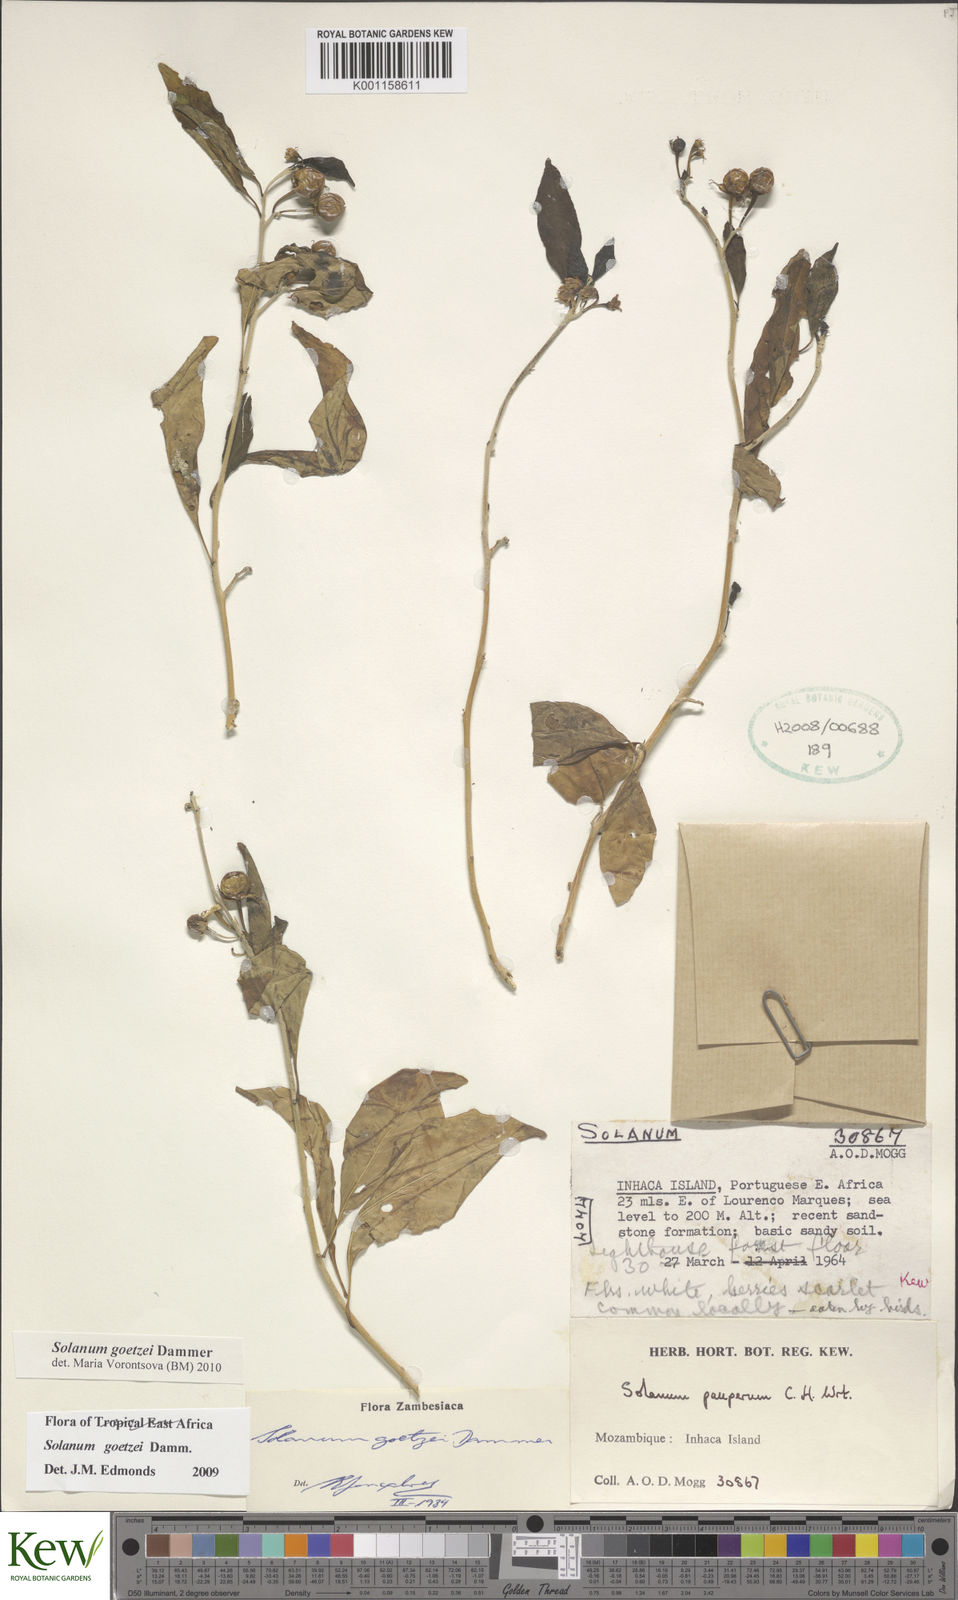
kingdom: Plantae
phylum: Tracheophyta
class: Magnoliopsida
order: Solanales
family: Solanaceae
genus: Solanum
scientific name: Solanum goetzei
